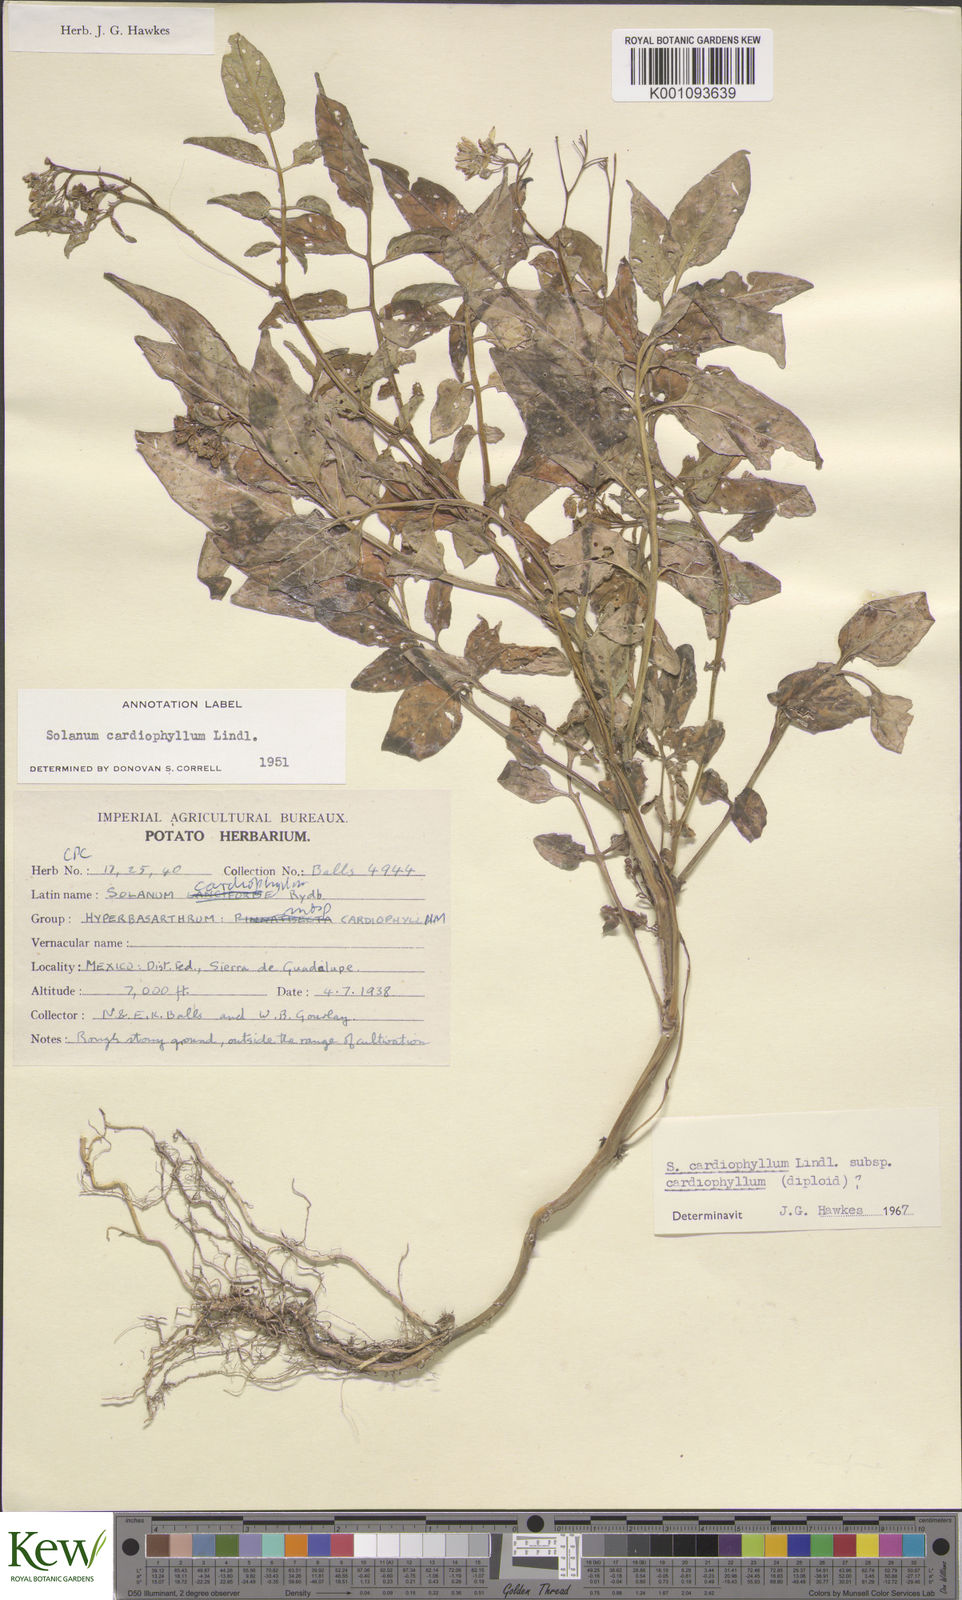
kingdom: Plantae
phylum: Tracheophyta
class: Magnoliopsida
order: Solanales
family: Solanaceae
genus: Solanum
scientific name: Solanum cardiophyllum
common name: Heartleaf horsenettle
